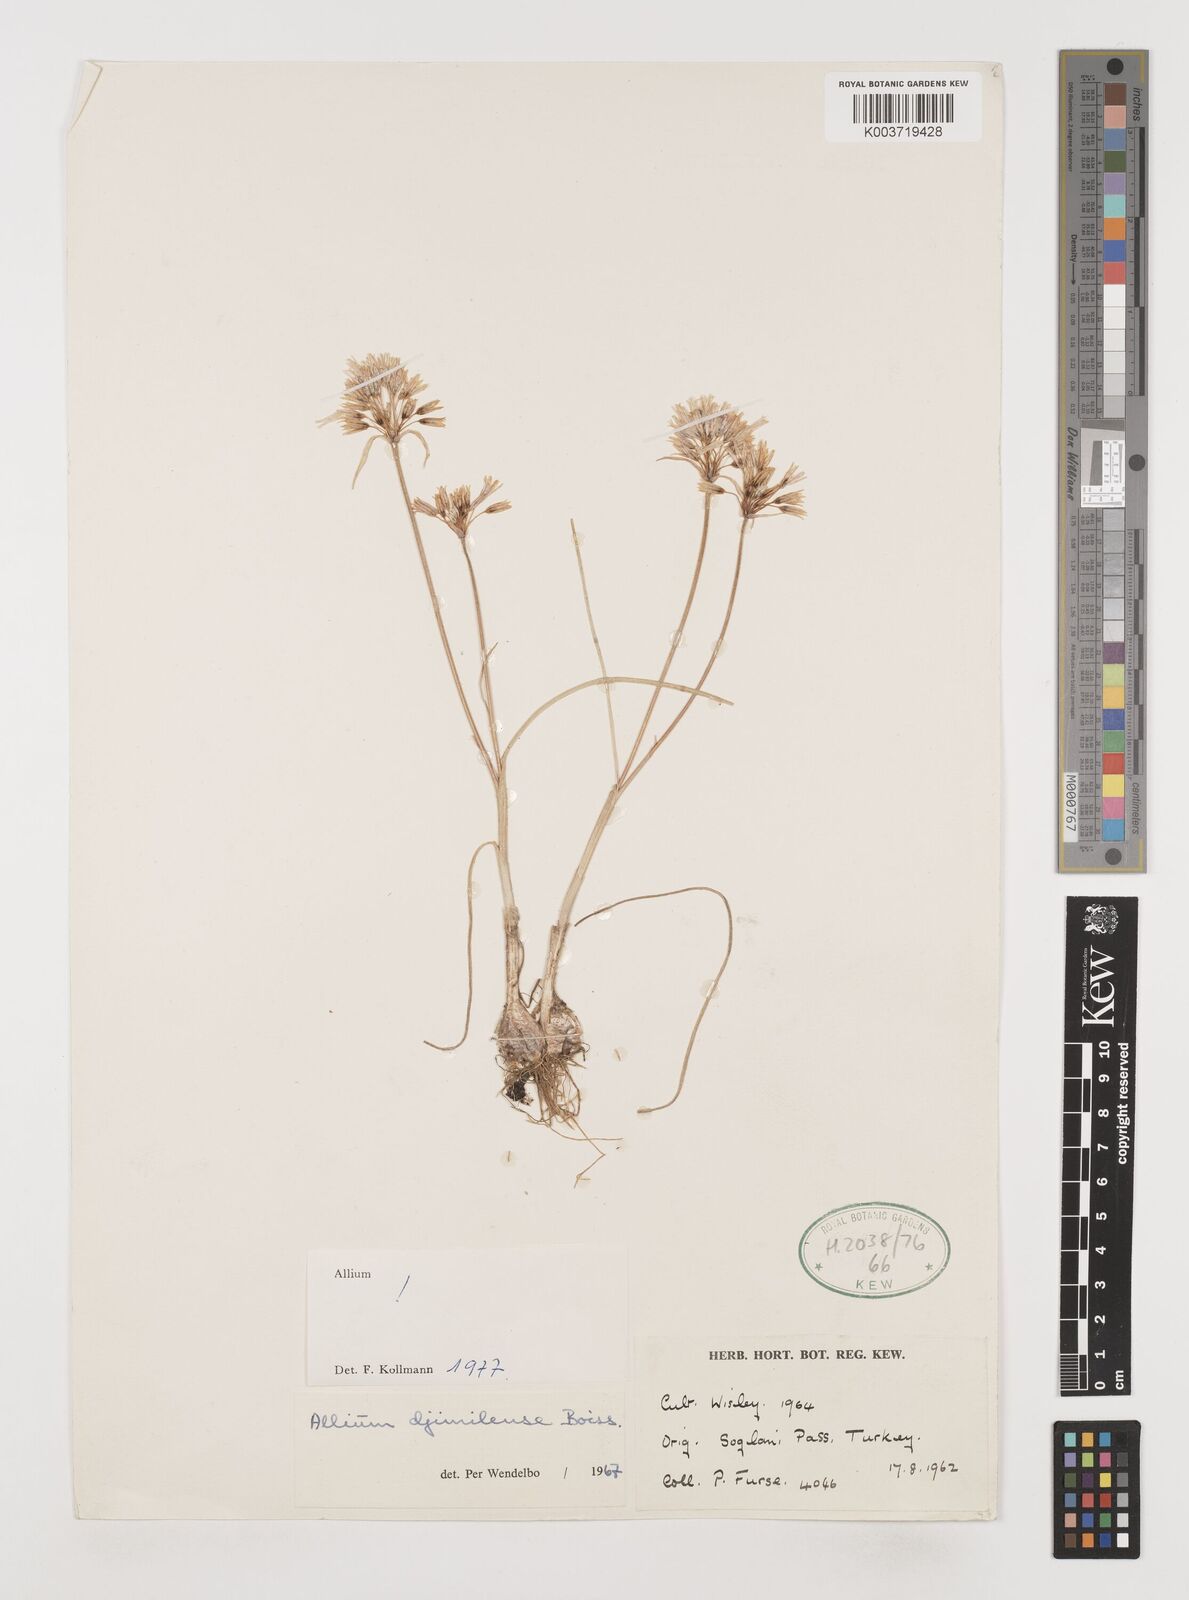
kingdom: Plantae
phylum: Tracheophyta
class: Liliopsida
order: Asparagales
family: Amaryllidaceae
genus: Allium
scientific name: Allium djimilense
